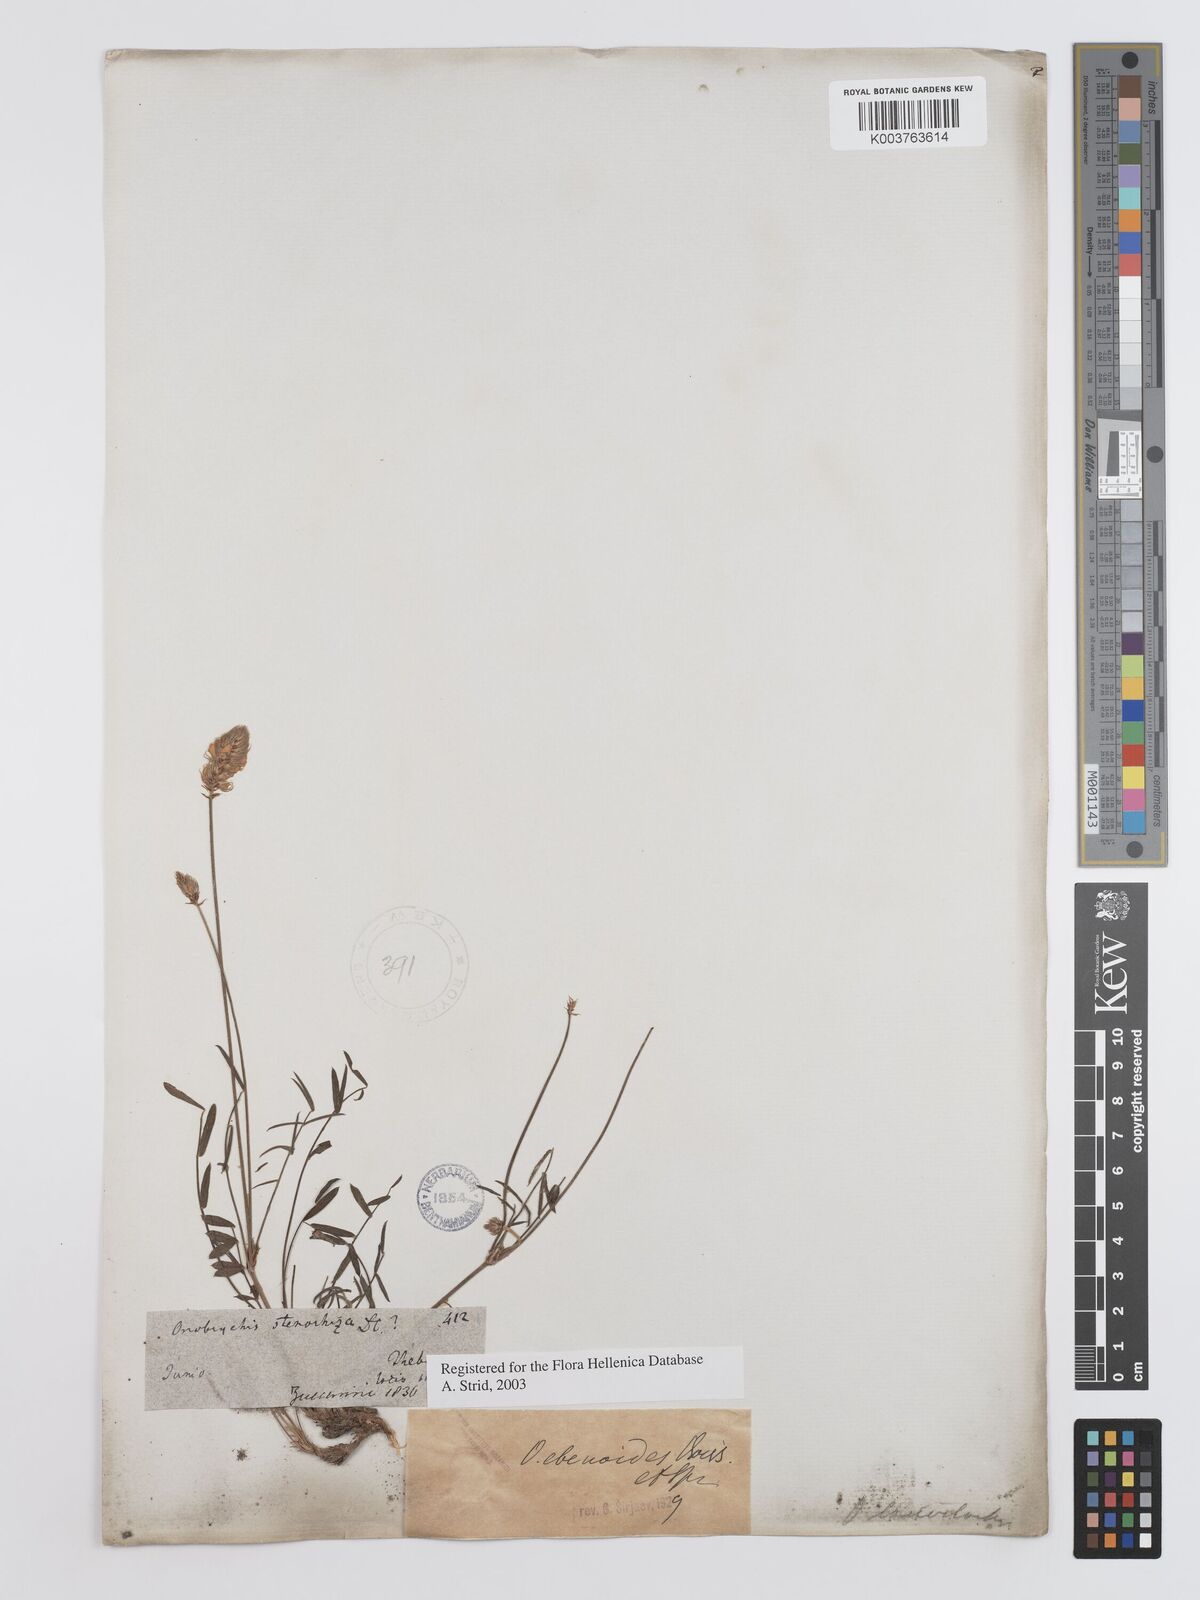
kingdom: Plantae
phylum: Tracheophyta
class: Magnoliopsida
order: Fabales
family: Fabaceae
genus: Onobrychis
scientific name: Onobrychis ebenoides
